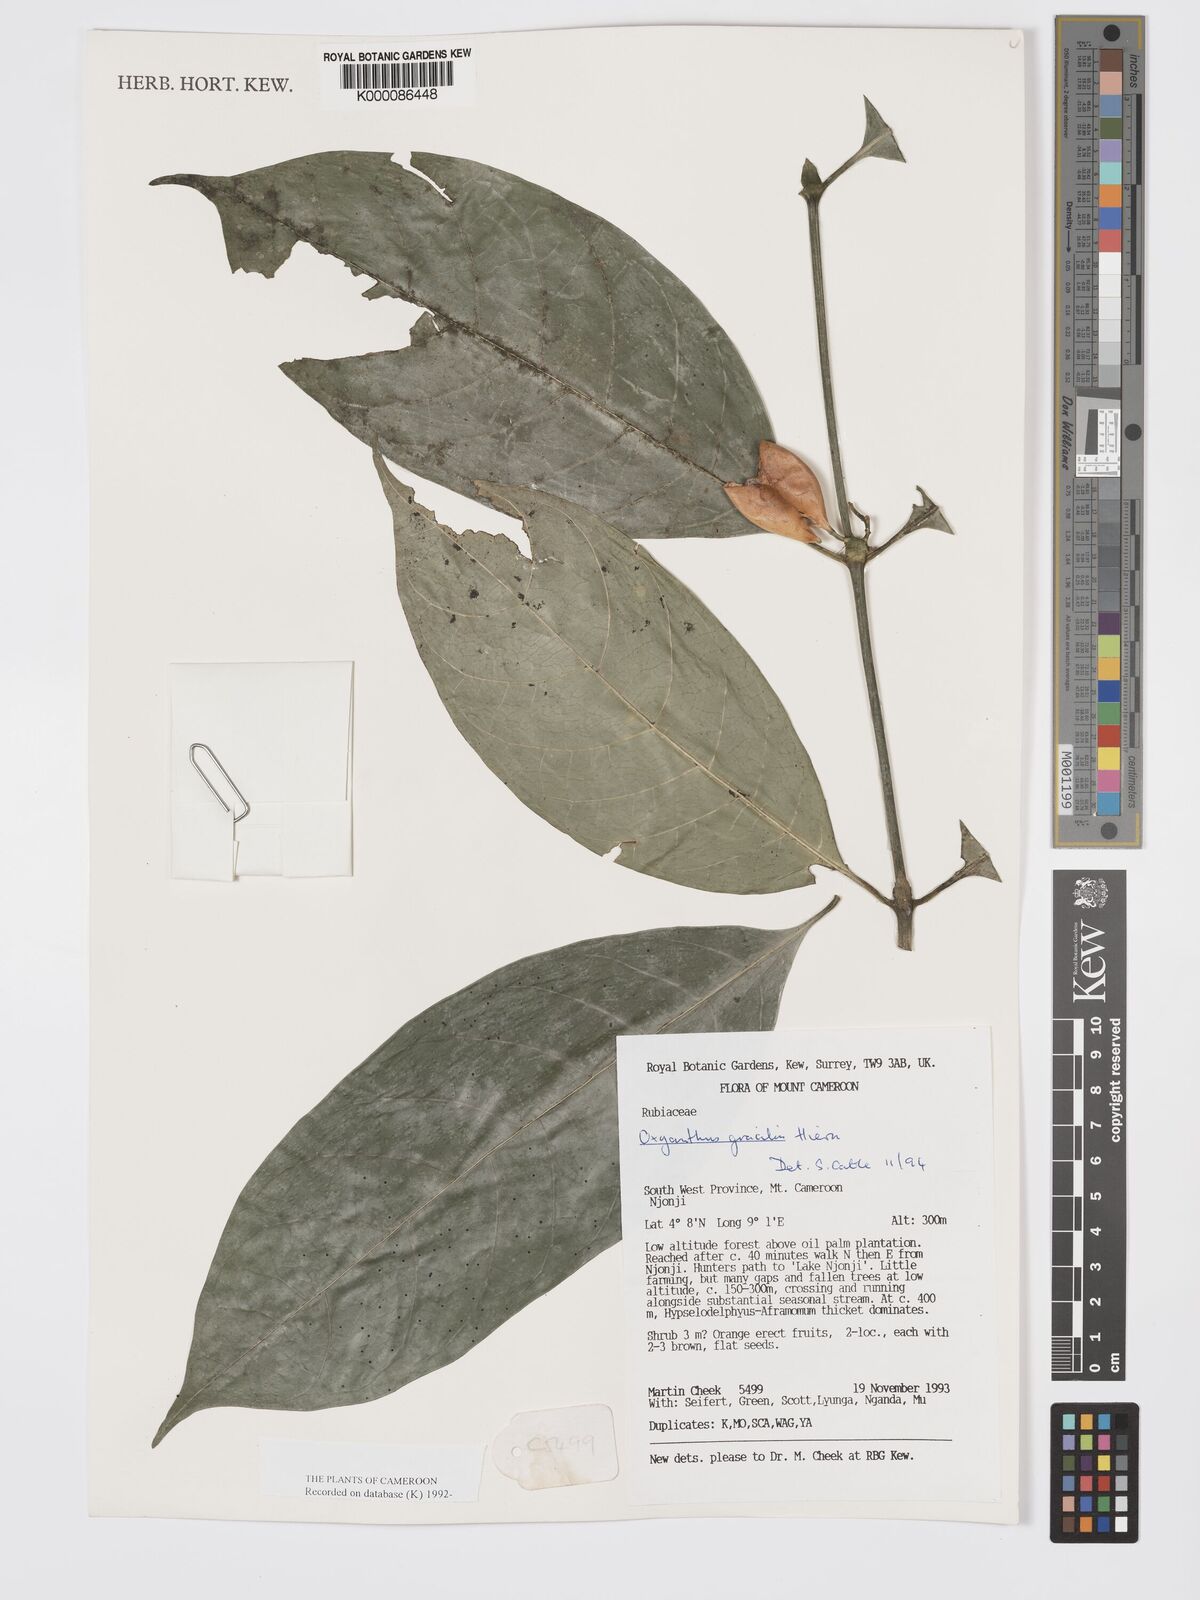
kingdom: Plantae
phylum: Tracheophyta
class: Magnoliopsida
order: Gentianales
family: Rubiaceae
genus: Oxyanthus
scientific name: Oxyanthus gracilis
